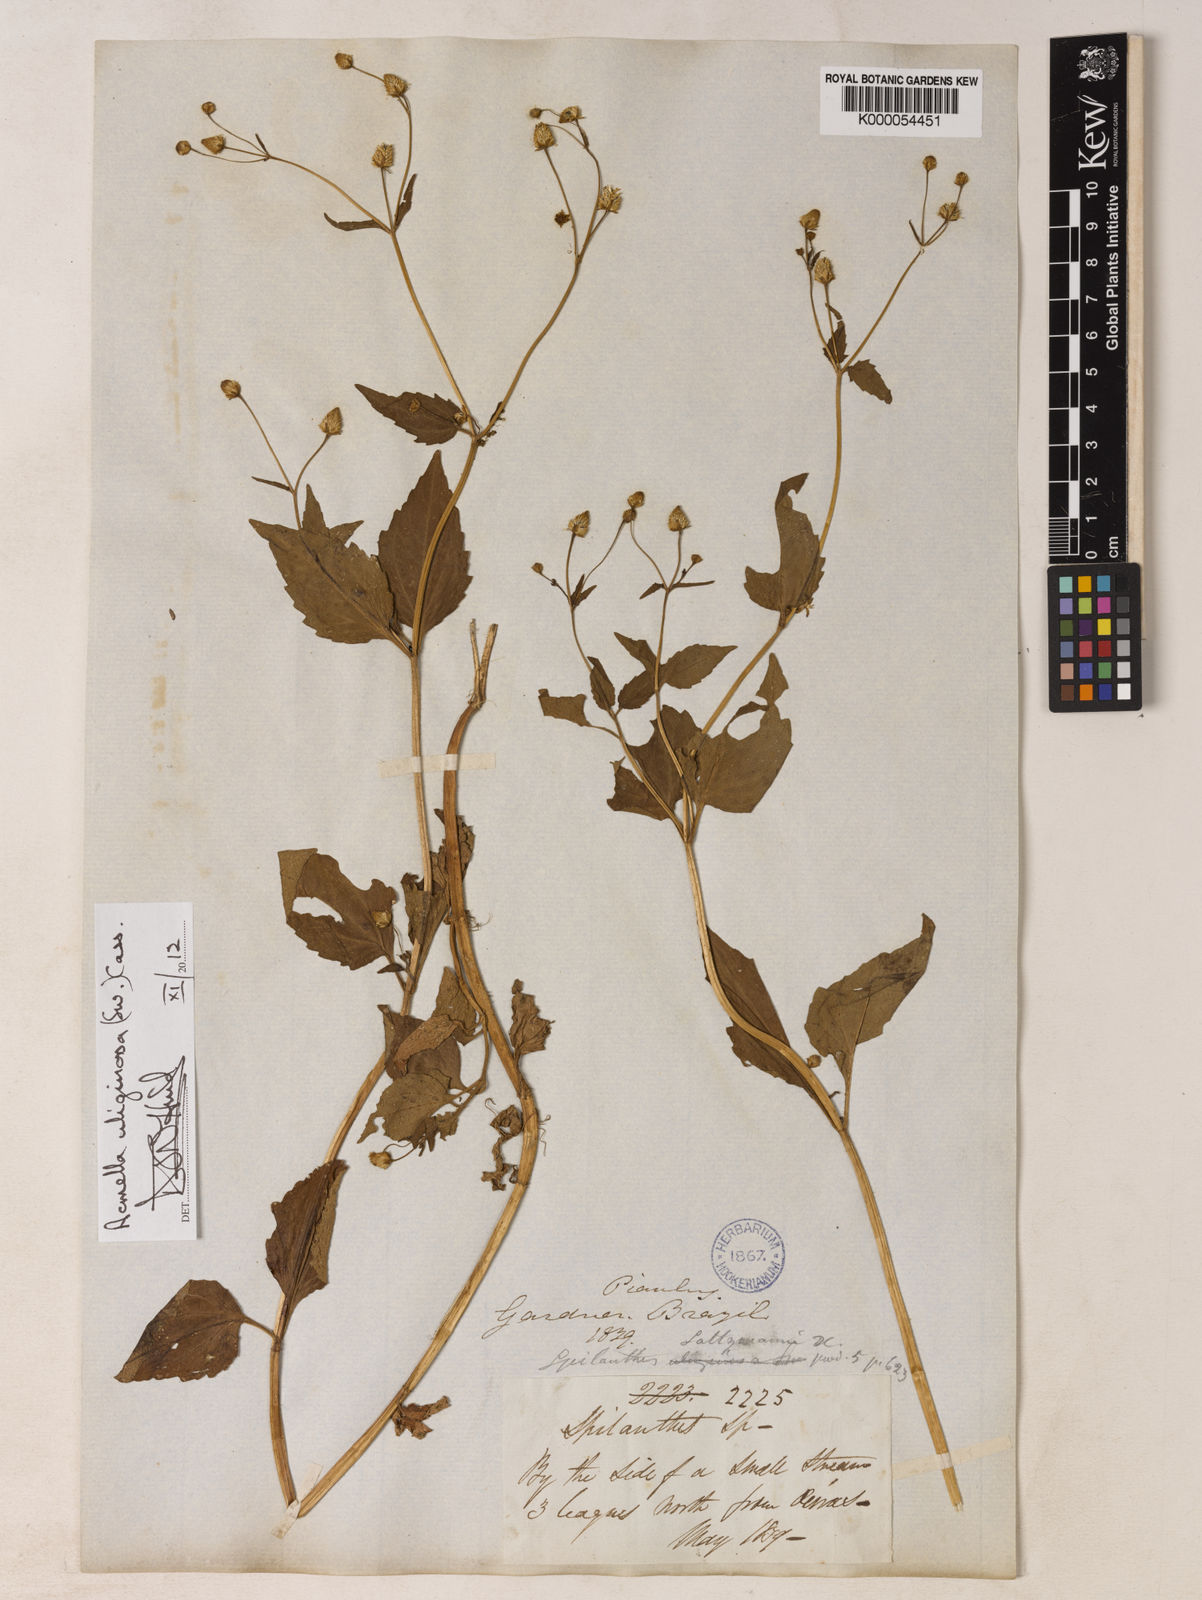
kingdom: Plantae
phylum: Tracheophyta
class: Magnoliopsida
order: Asterales
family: Asteraceae
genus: Acmella
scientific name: Acmella uliginosa
